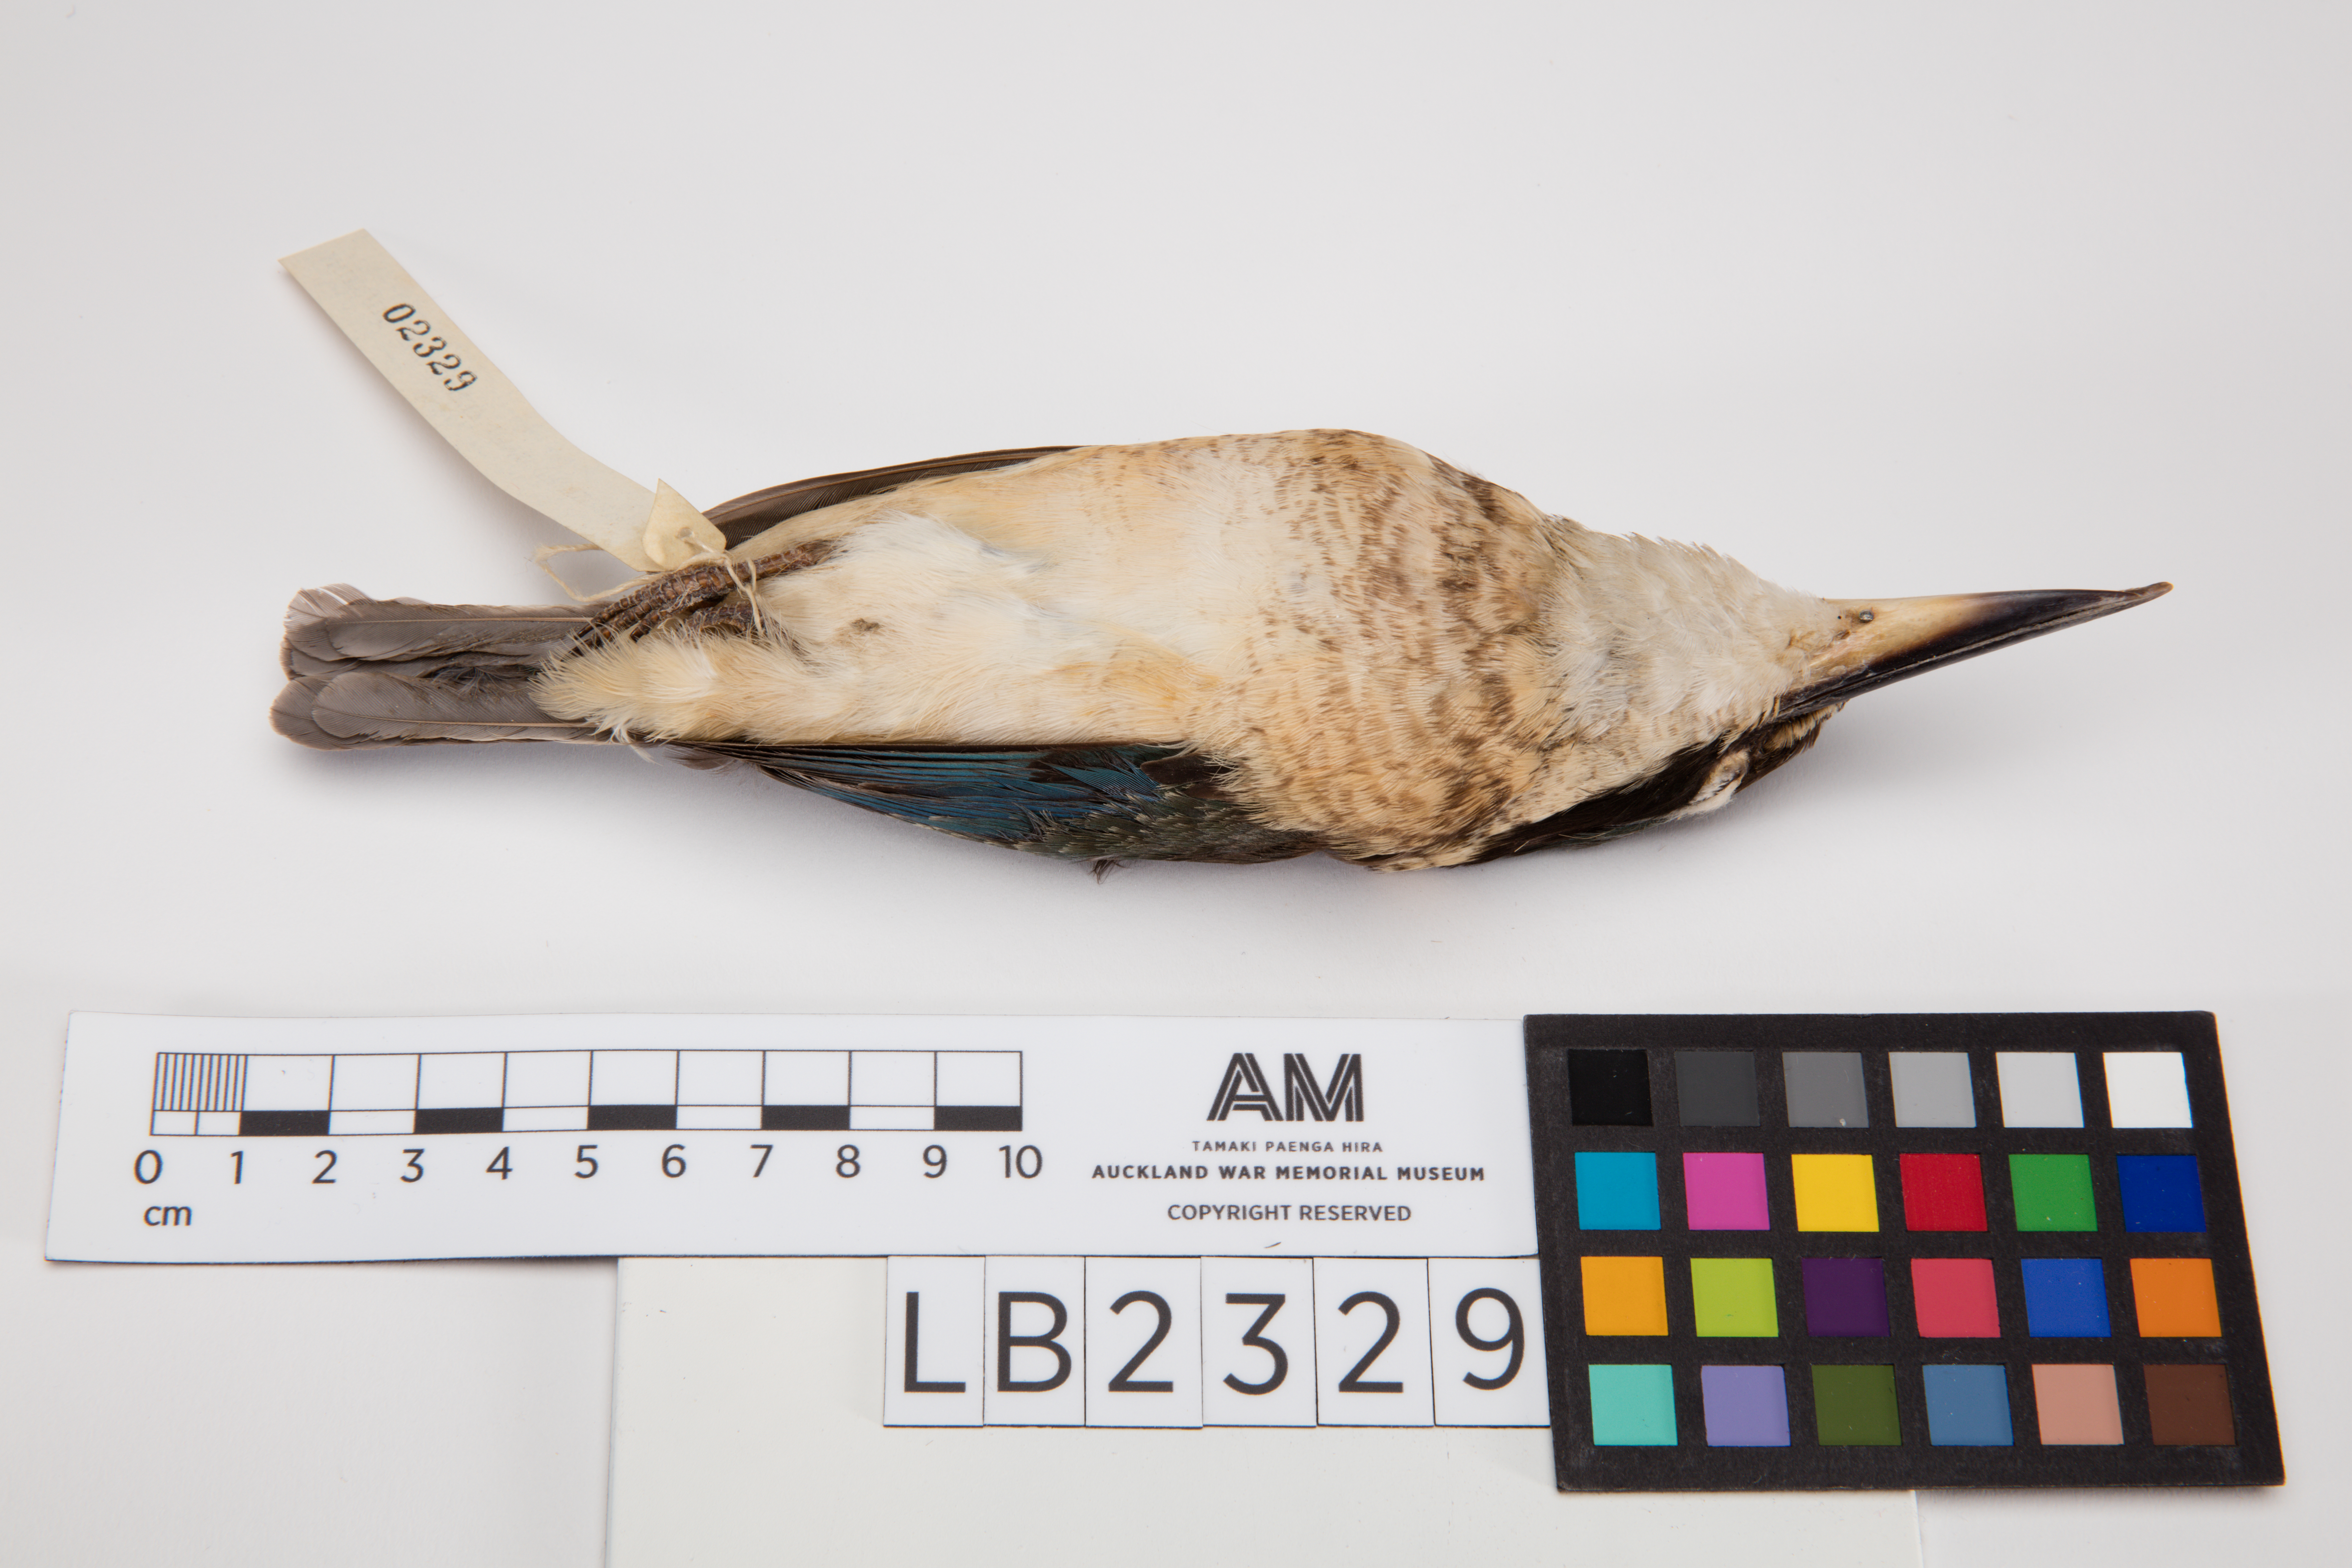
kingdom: Animalia
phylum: Chordata
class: Aves
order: Coraciiformes
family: Alcedinidae
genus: Todiramphus
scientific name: Todiramphus sanctus
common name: Sacred kingfisher
